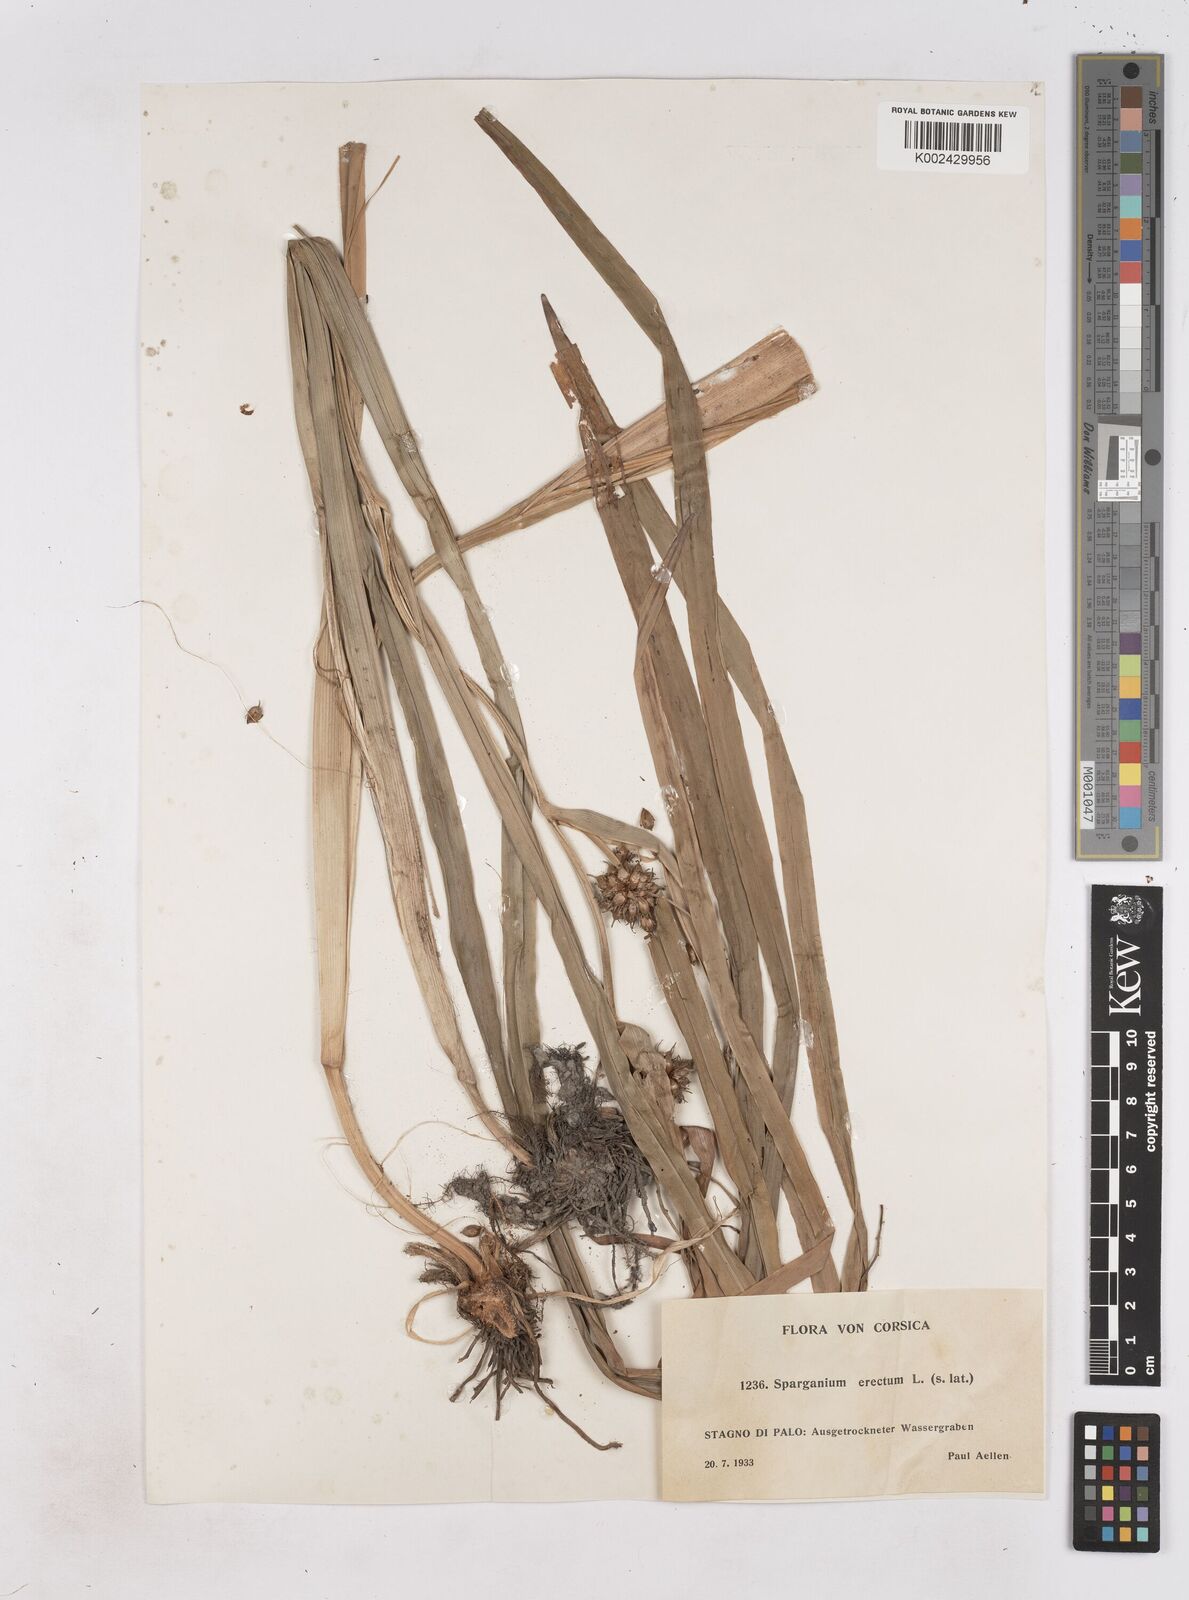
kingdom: Plantae
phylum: Tracheophyta
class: Liliopsida
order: Poales
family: Typhaceae
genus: Sparganium
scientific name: Sparganium erectum
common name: Branched bur-reed
